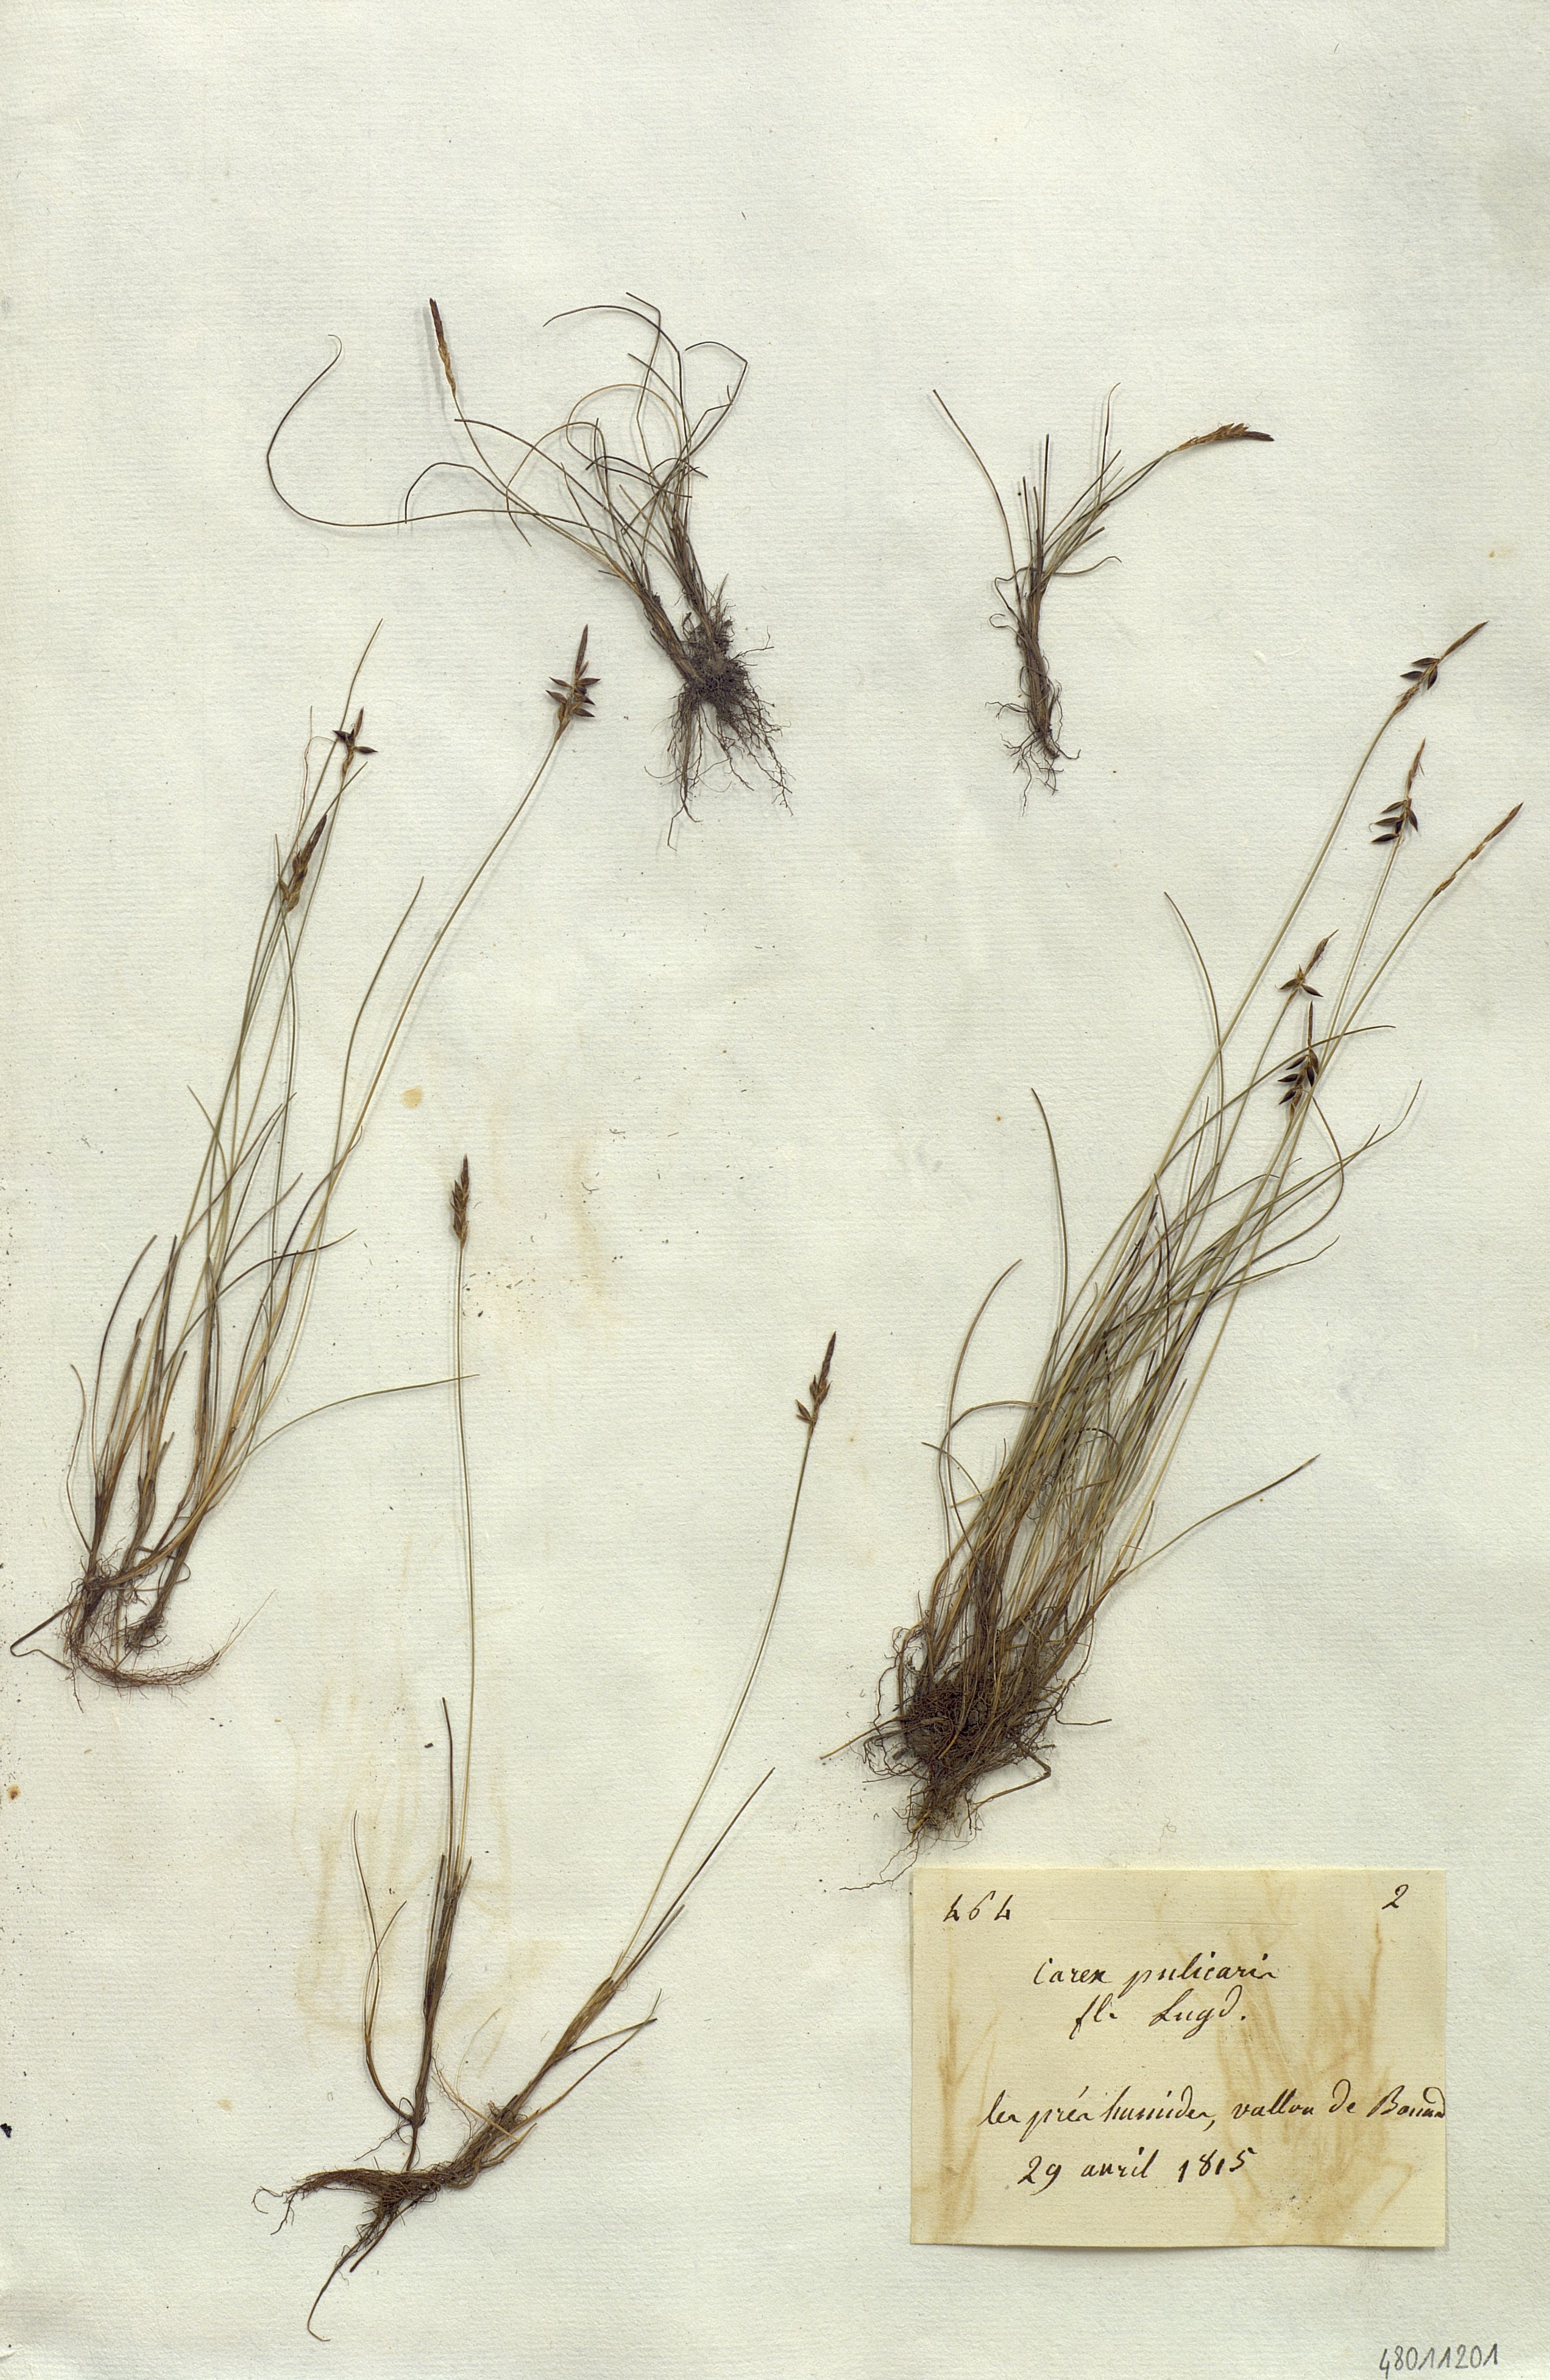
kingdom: Plantae
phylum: Tracheophyta
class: Liliopsida
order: Poales
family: Cyperaceae
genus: Carex
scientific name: Carex pulicaris
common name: Flea sedge
